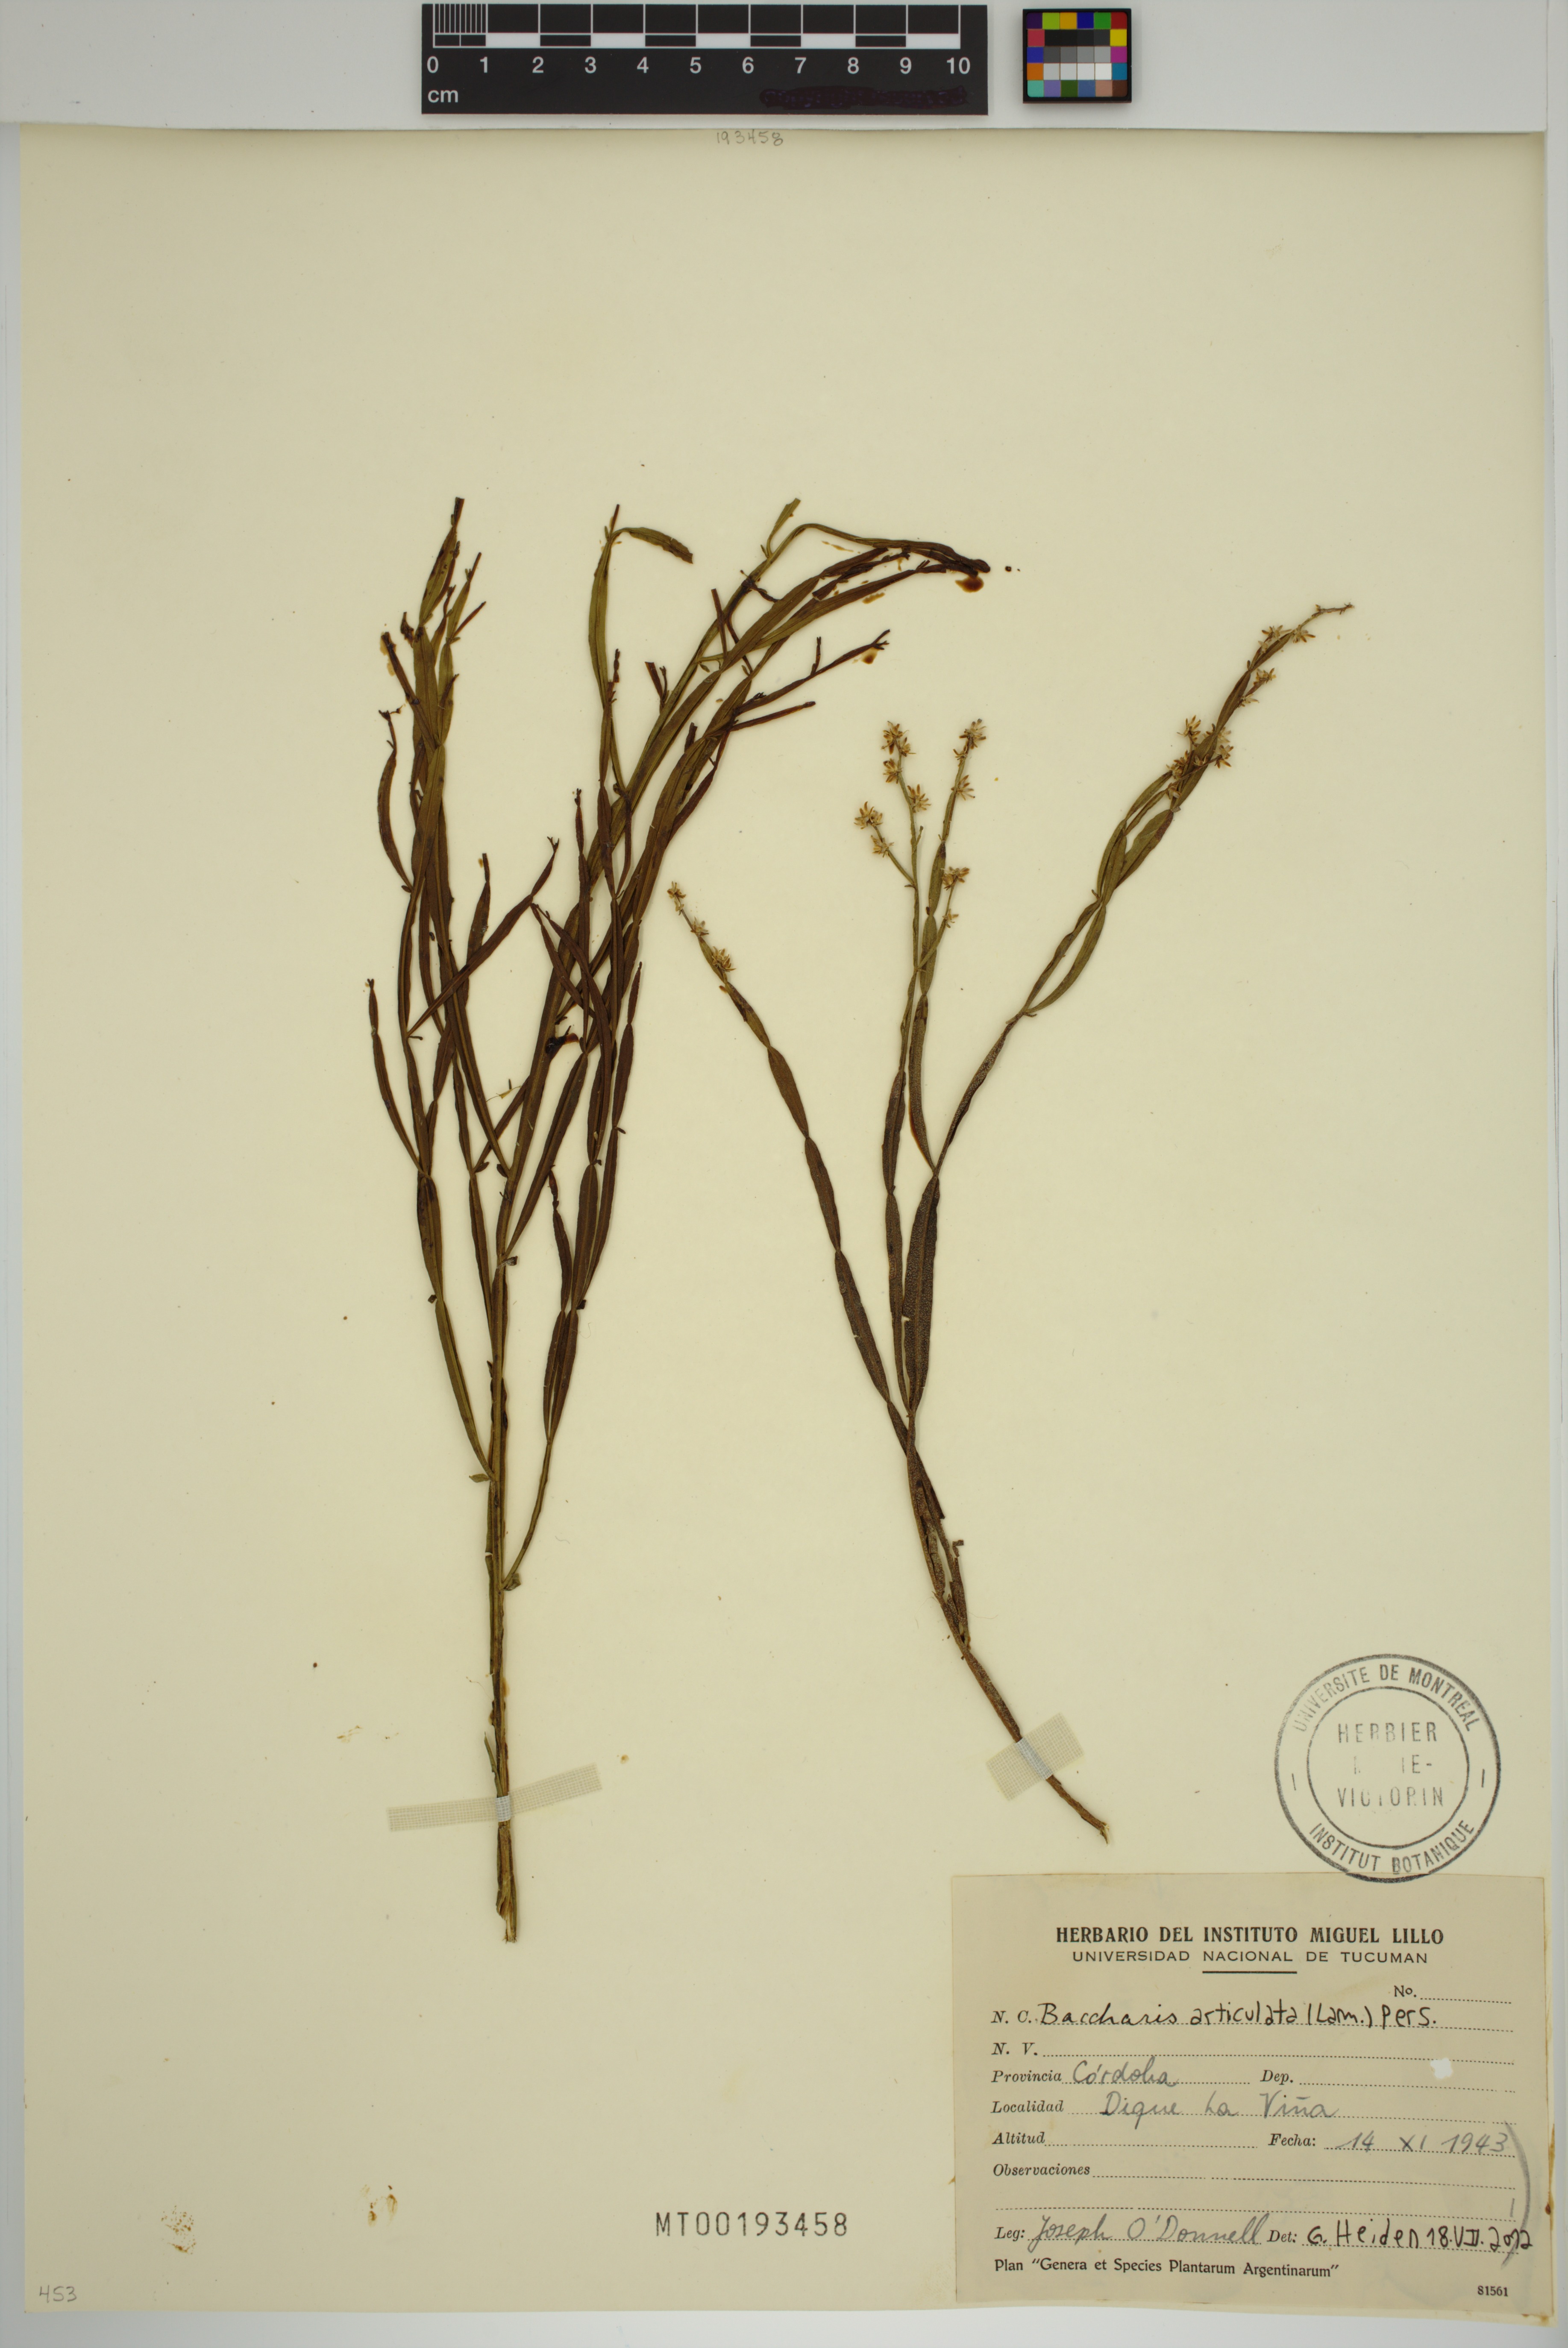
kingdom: Plantae
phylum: Tracheophyta
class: Magnoliopsida
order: Asterales
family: Asteraceae
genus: Baccharis
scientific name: Baccharis articulata
